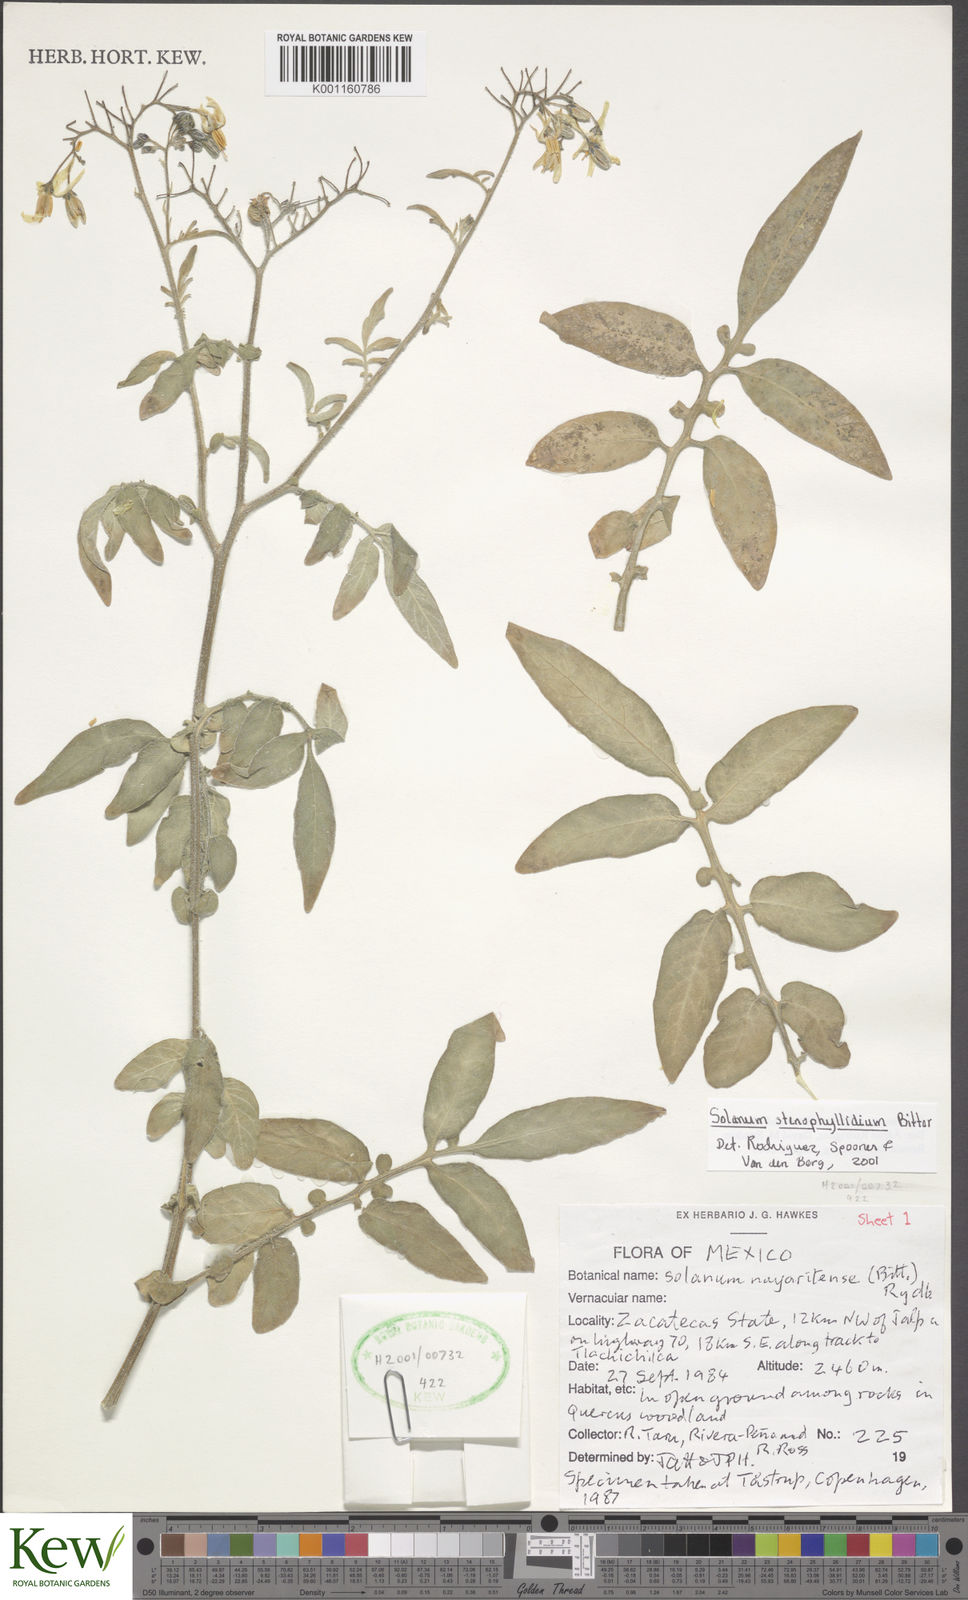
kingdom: Plantae
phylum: Tracheophyta
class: Magnoliopsida
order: Solanales
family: Solanaceae
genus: Solanum
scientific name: Solanum stenophyllidium
